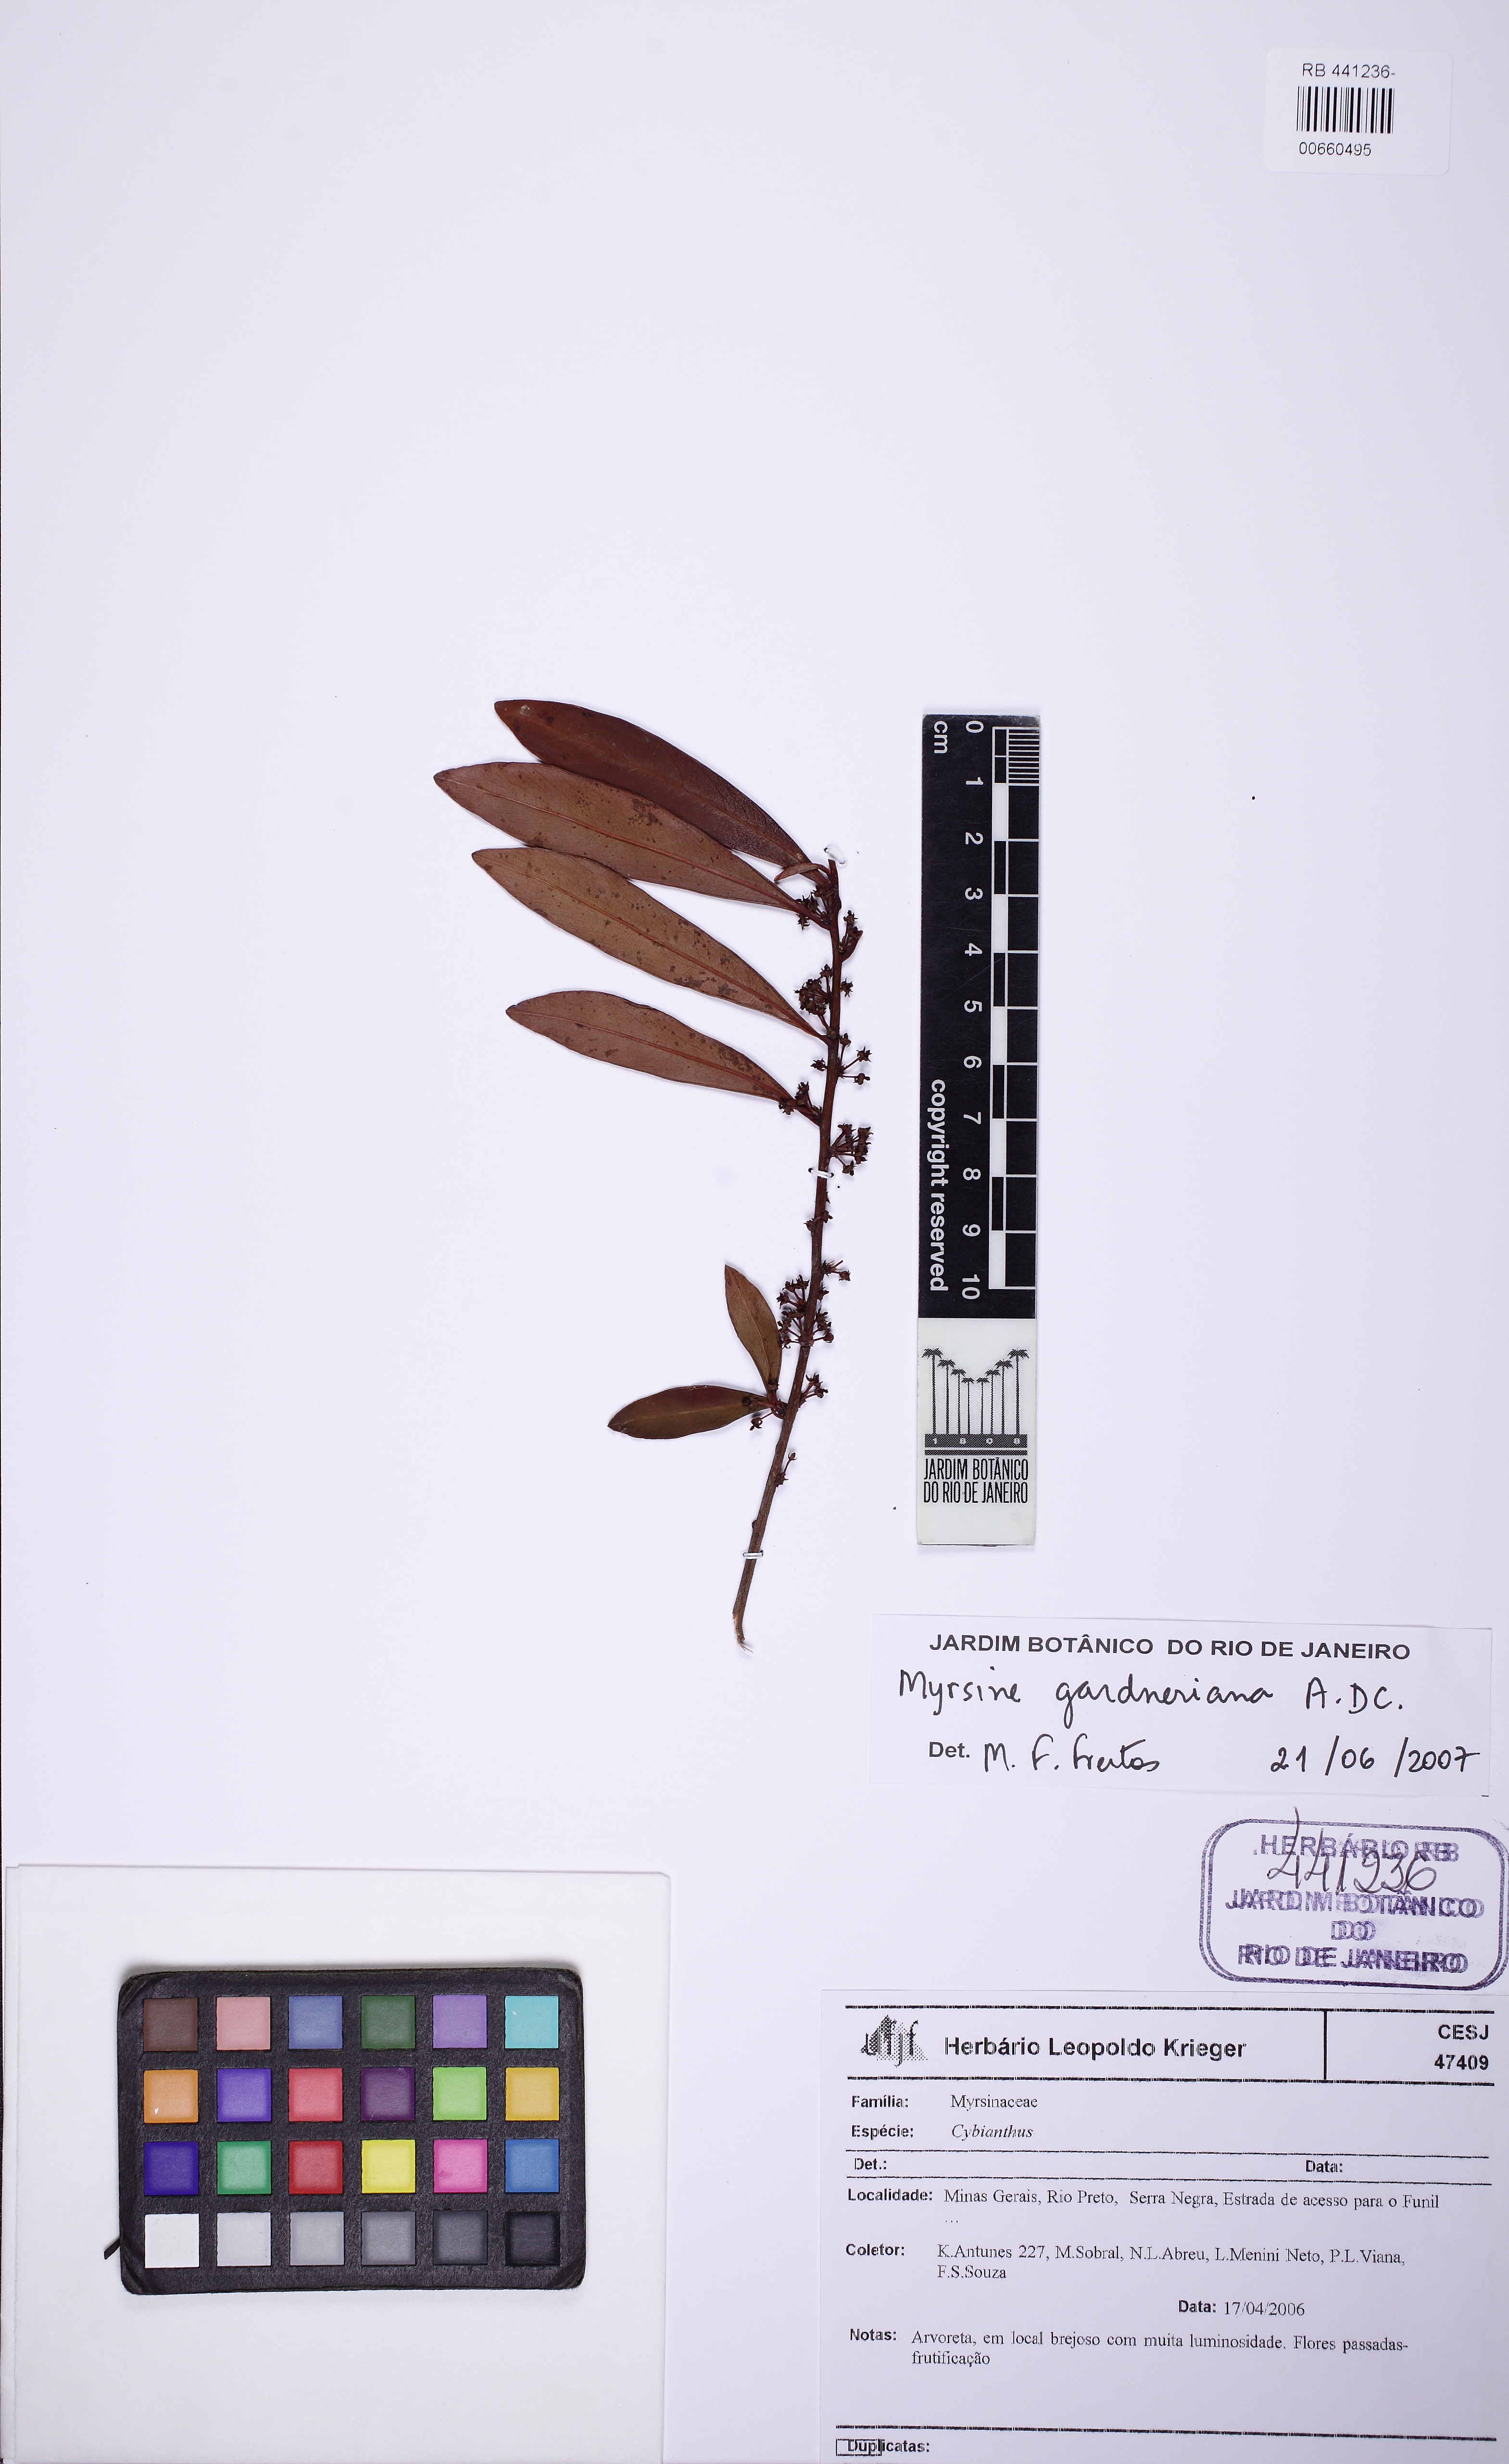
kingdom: Plantae
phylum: Tracheophyta
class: Magnoliopsida
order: Ericales
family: Primulaceae
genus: Myrsine
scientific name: Myrsine gardneriana
